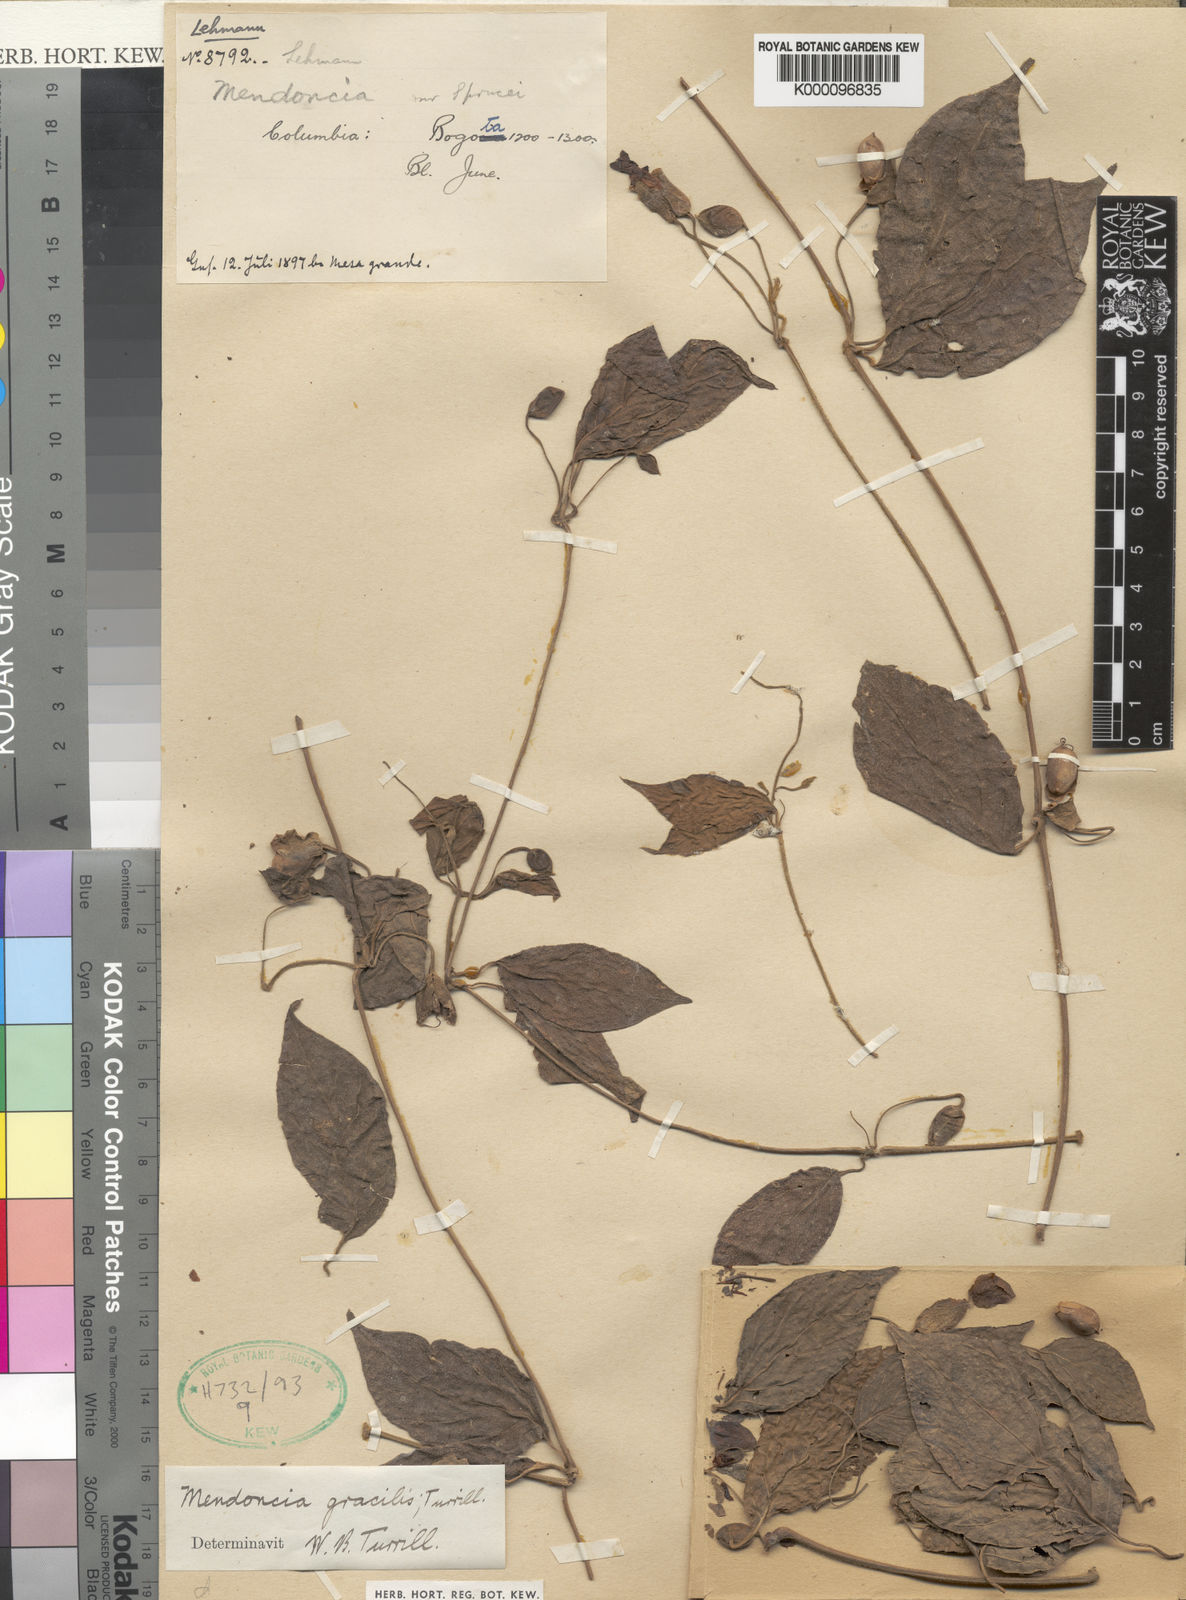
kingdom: Plantae
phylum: Tracheophyta
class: Magnoliopsida
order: Lamiales
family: Acanthaceae
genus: Mendoncia
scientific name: Mendoncia gracilis
